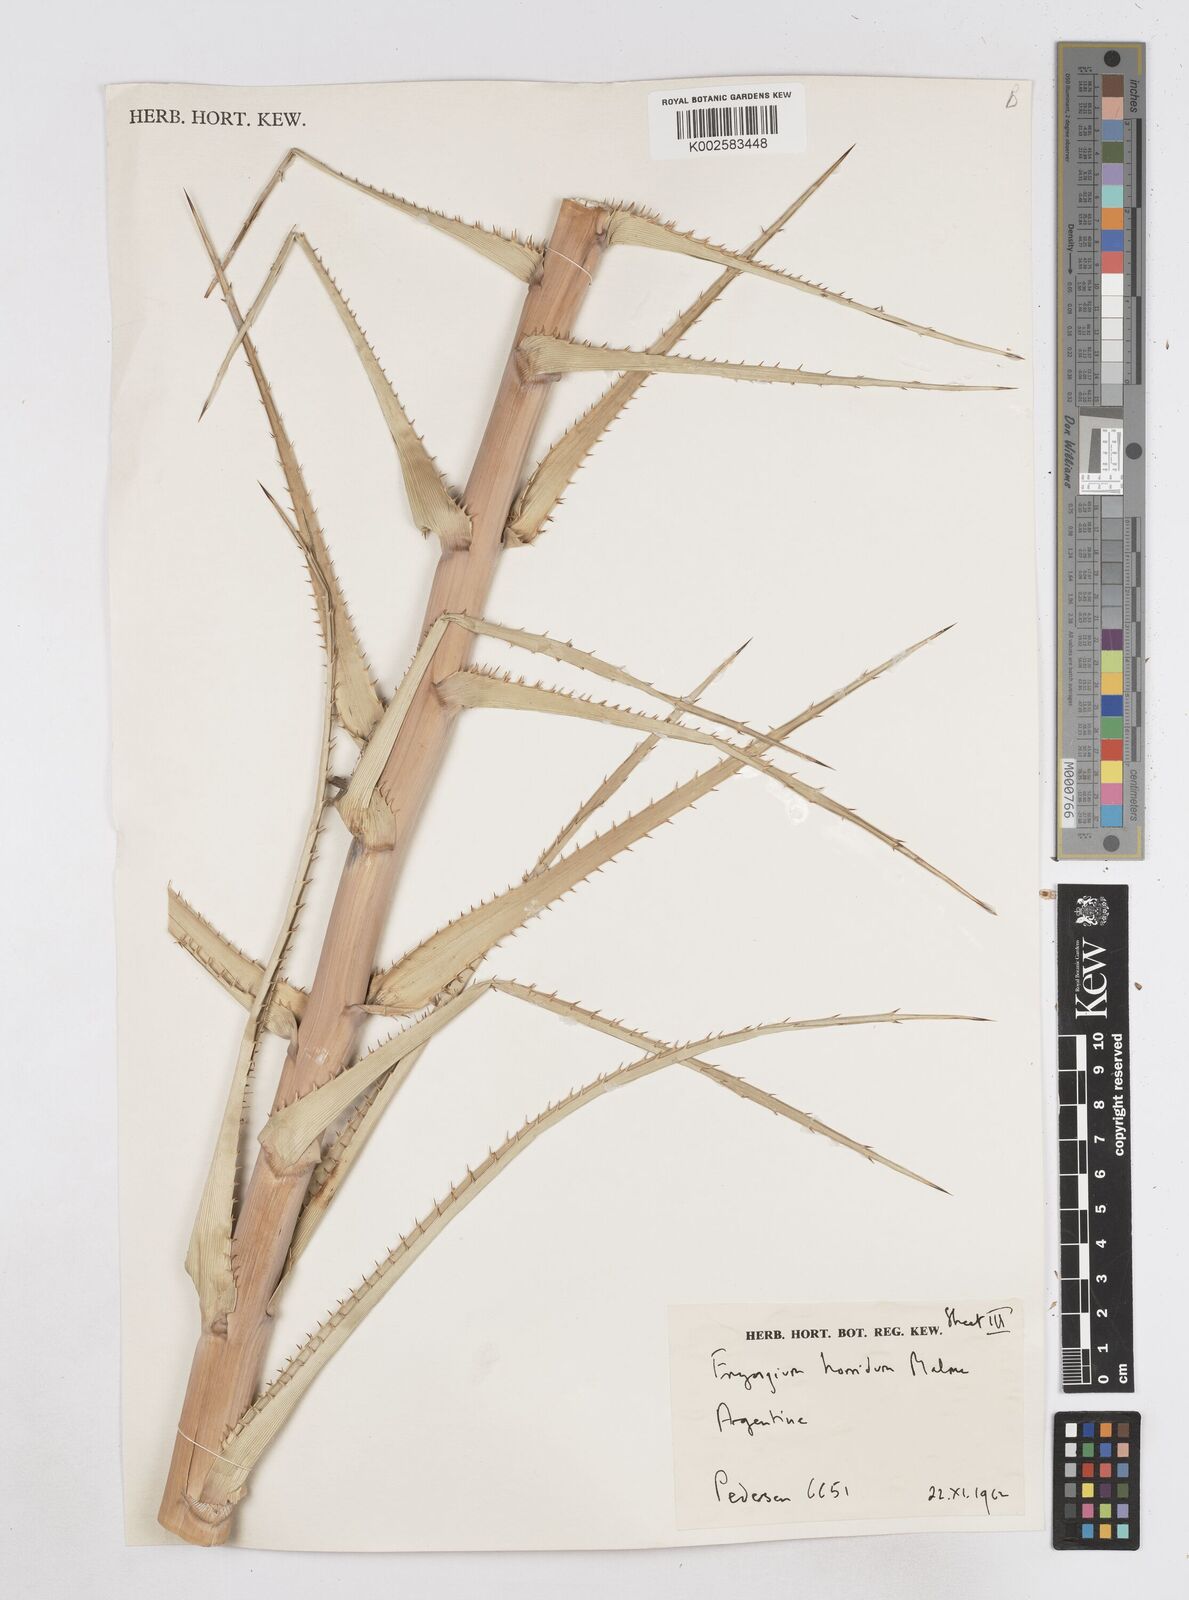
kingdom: Plantae
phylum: Tracheophyta
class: Magnoliopsida
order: Apiales
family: Apiaceae
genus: Eryngium
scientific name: Eryngium horridum
